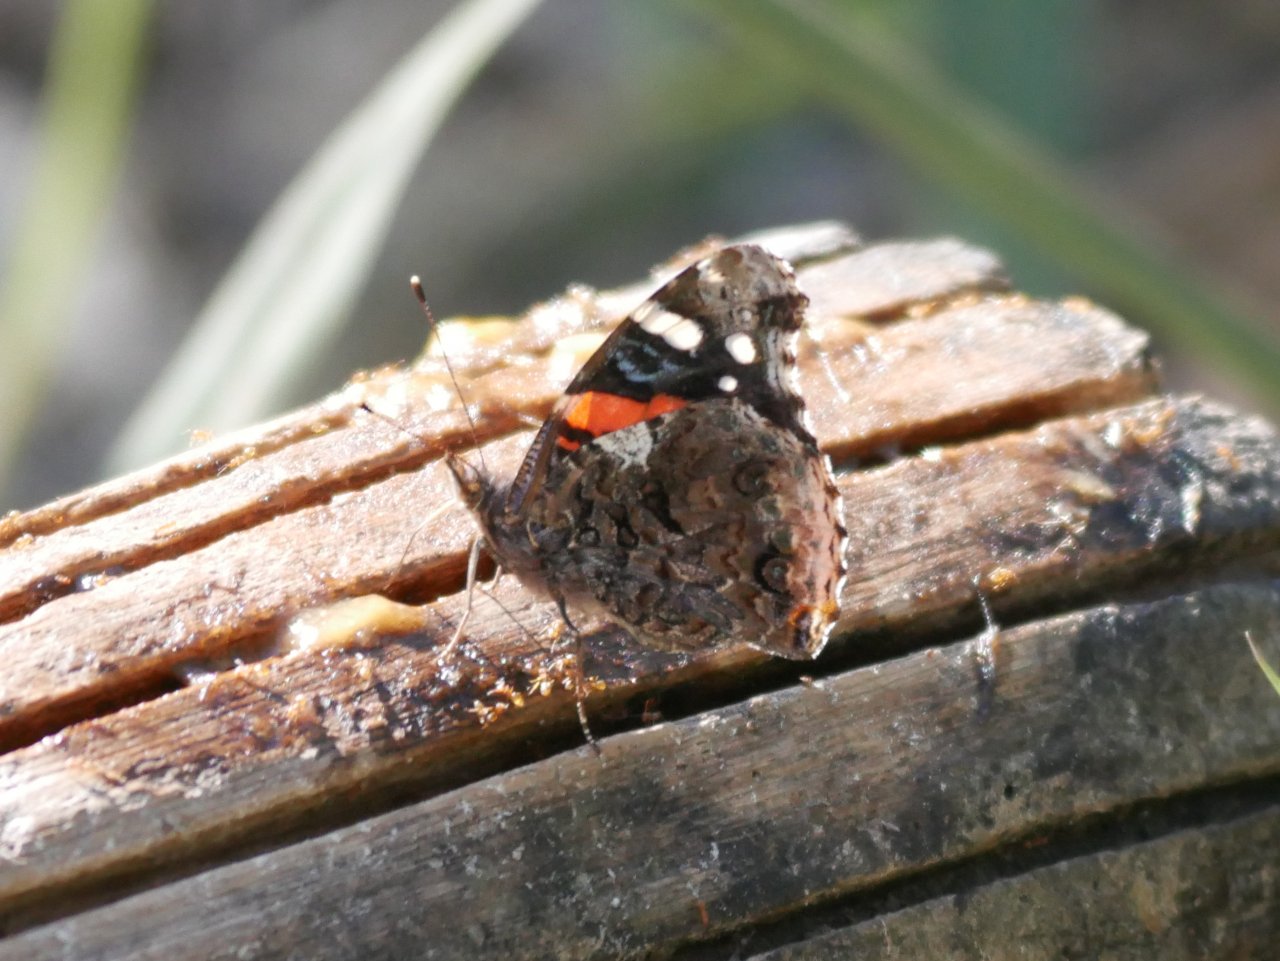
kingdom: Animalia
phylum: Arthropoda
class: Insecta
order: Lepidoptera
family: Nymphalidae
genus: Vanessa
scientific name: Vanessa cardui
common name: Painted Lady
